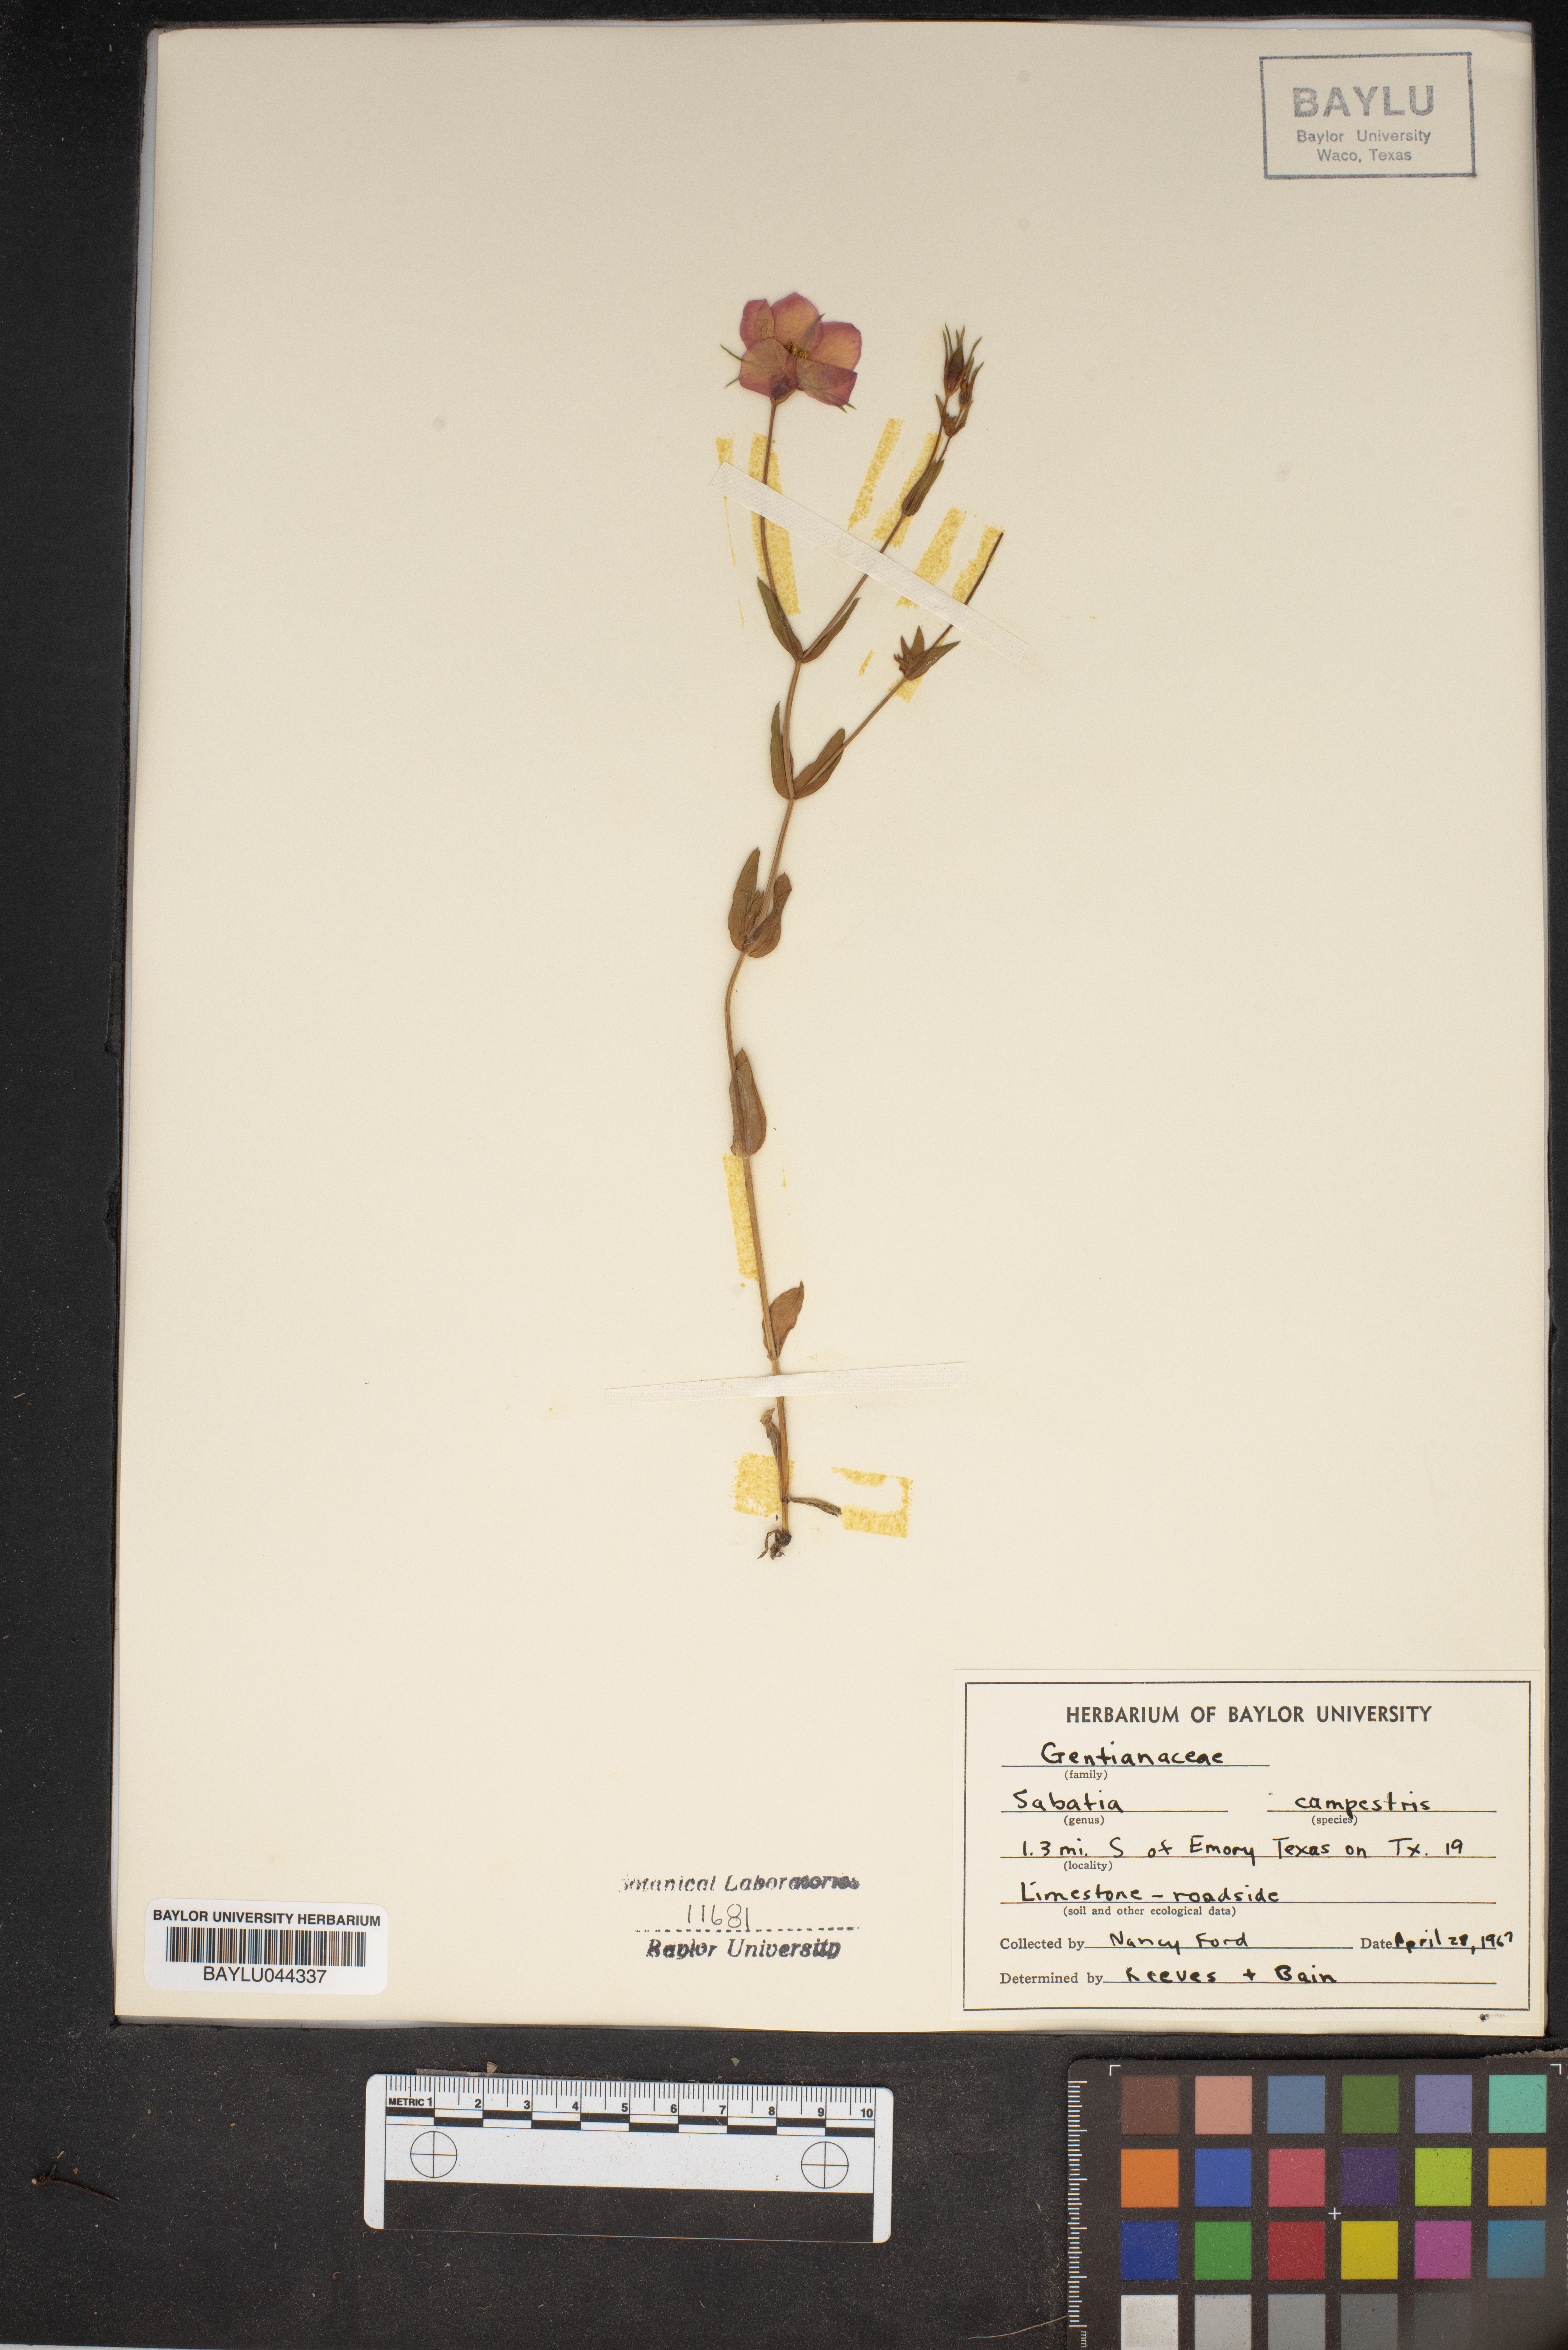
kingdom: Plantae
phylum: Tracheophyta
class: Magnoliopsida
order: Gentianales
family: Gentianaceae
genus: Sabatia
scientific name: Sabatia campestris
